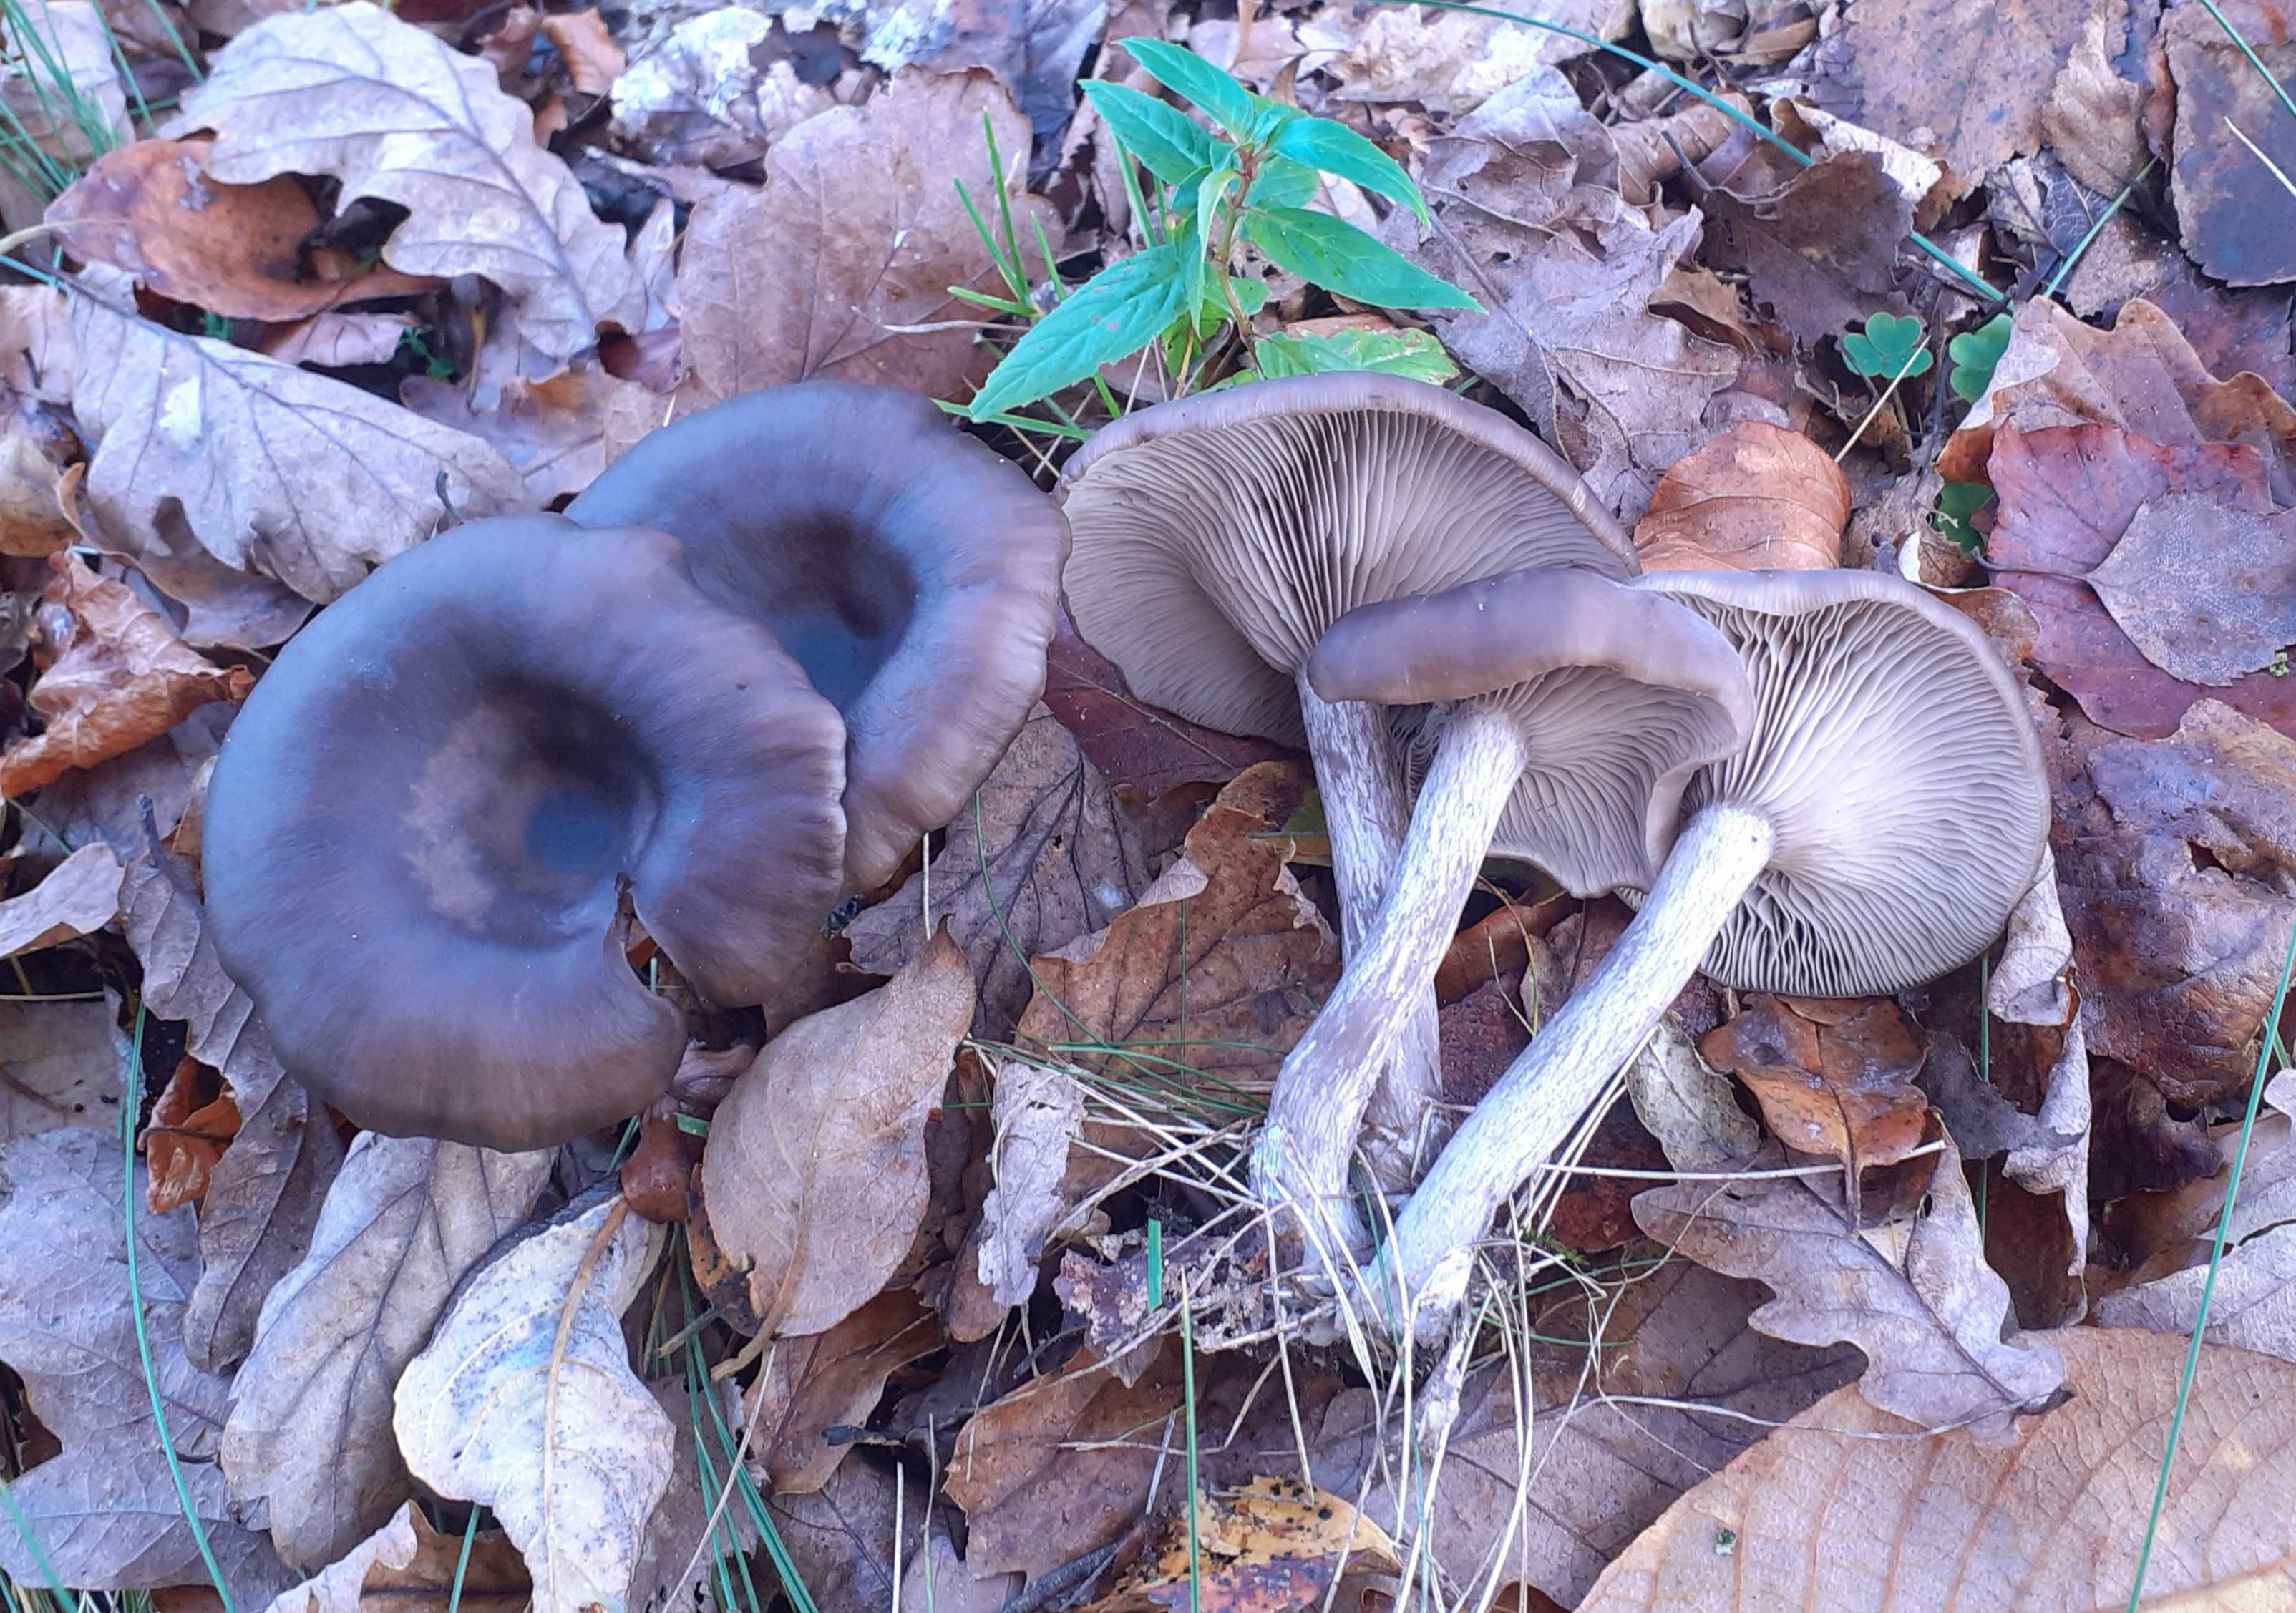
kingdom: Fungi
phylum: Basidiomycota
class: Agaricomycetes
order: Agaricales
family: Pseudoclitocybaceae
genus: Pseudoclitocybe
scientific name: Pseudoclitocybe cyathiformis
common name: almindelig bægertragthat
